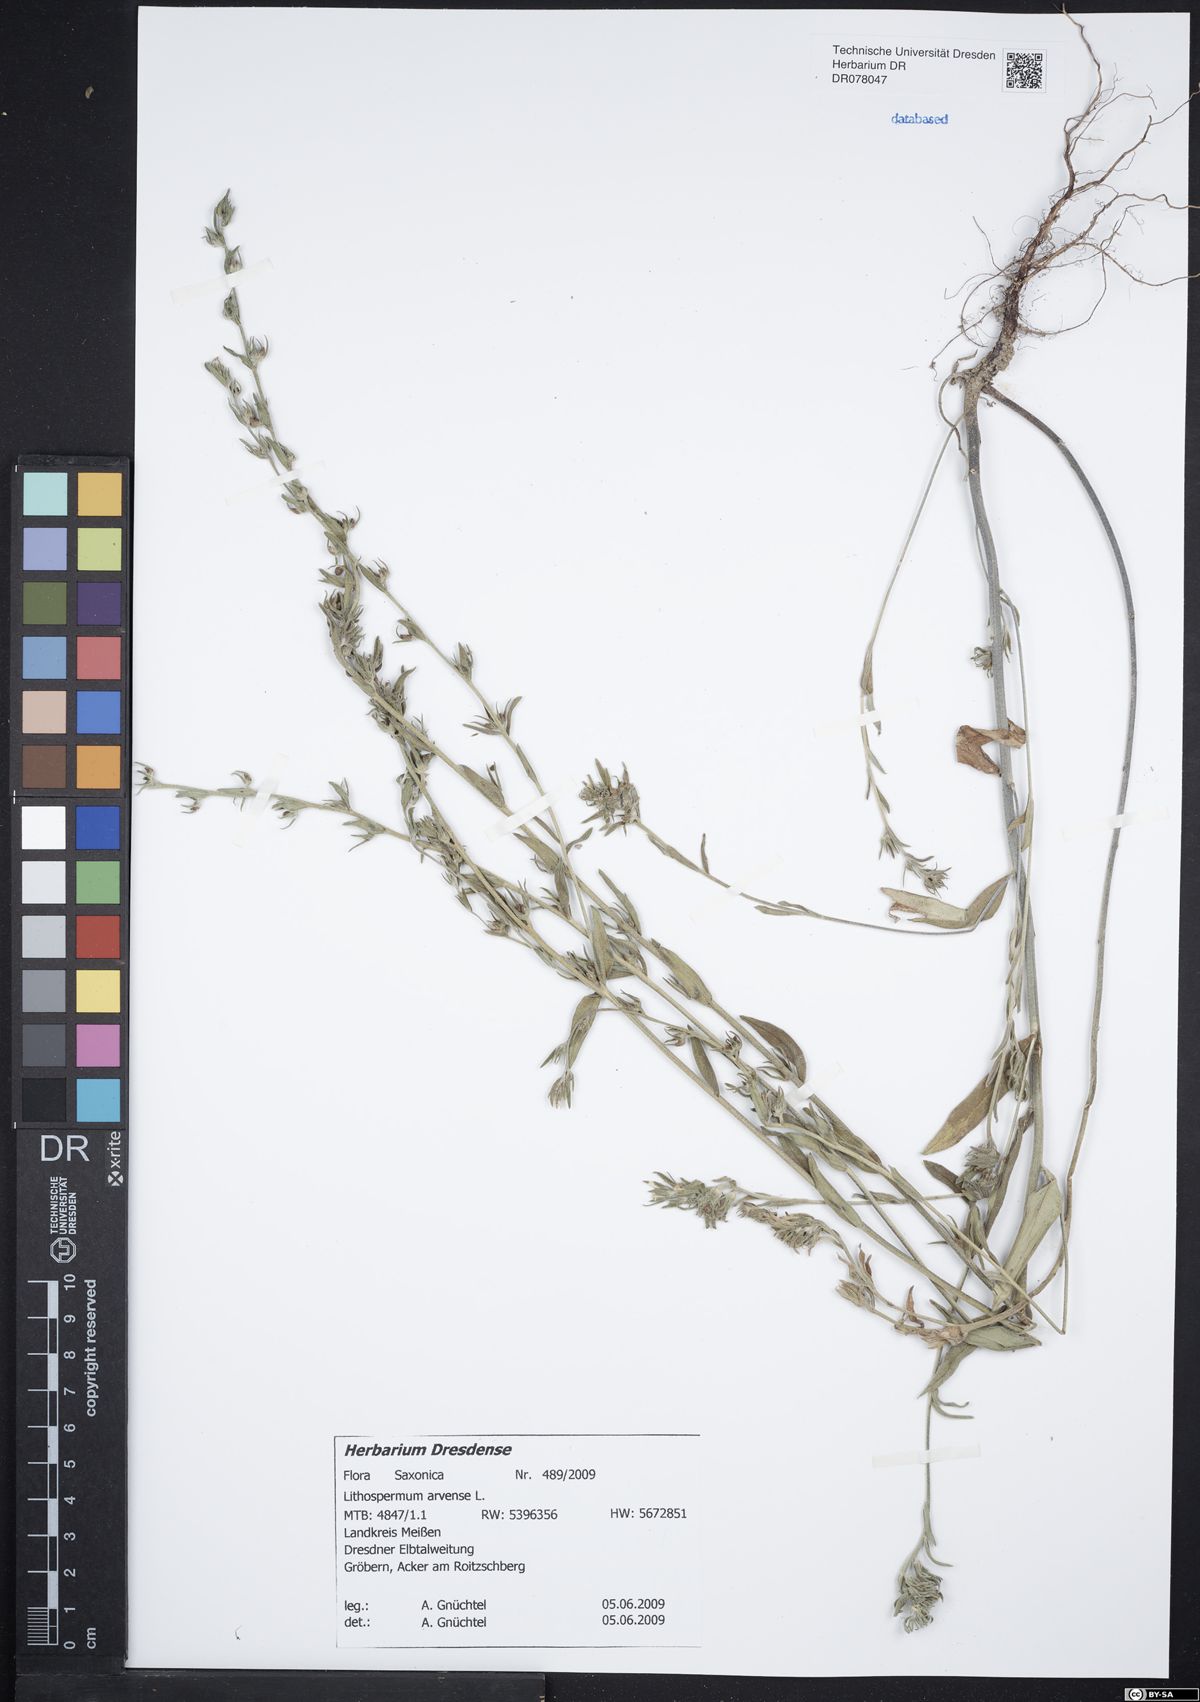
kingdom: Plantae
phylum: Tracheophyta
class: Magnoliopsida
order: Boraginales
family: Boraginaceae
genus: Buglossoides
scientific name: Buglossoides arvensis
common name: Corn gromwell
